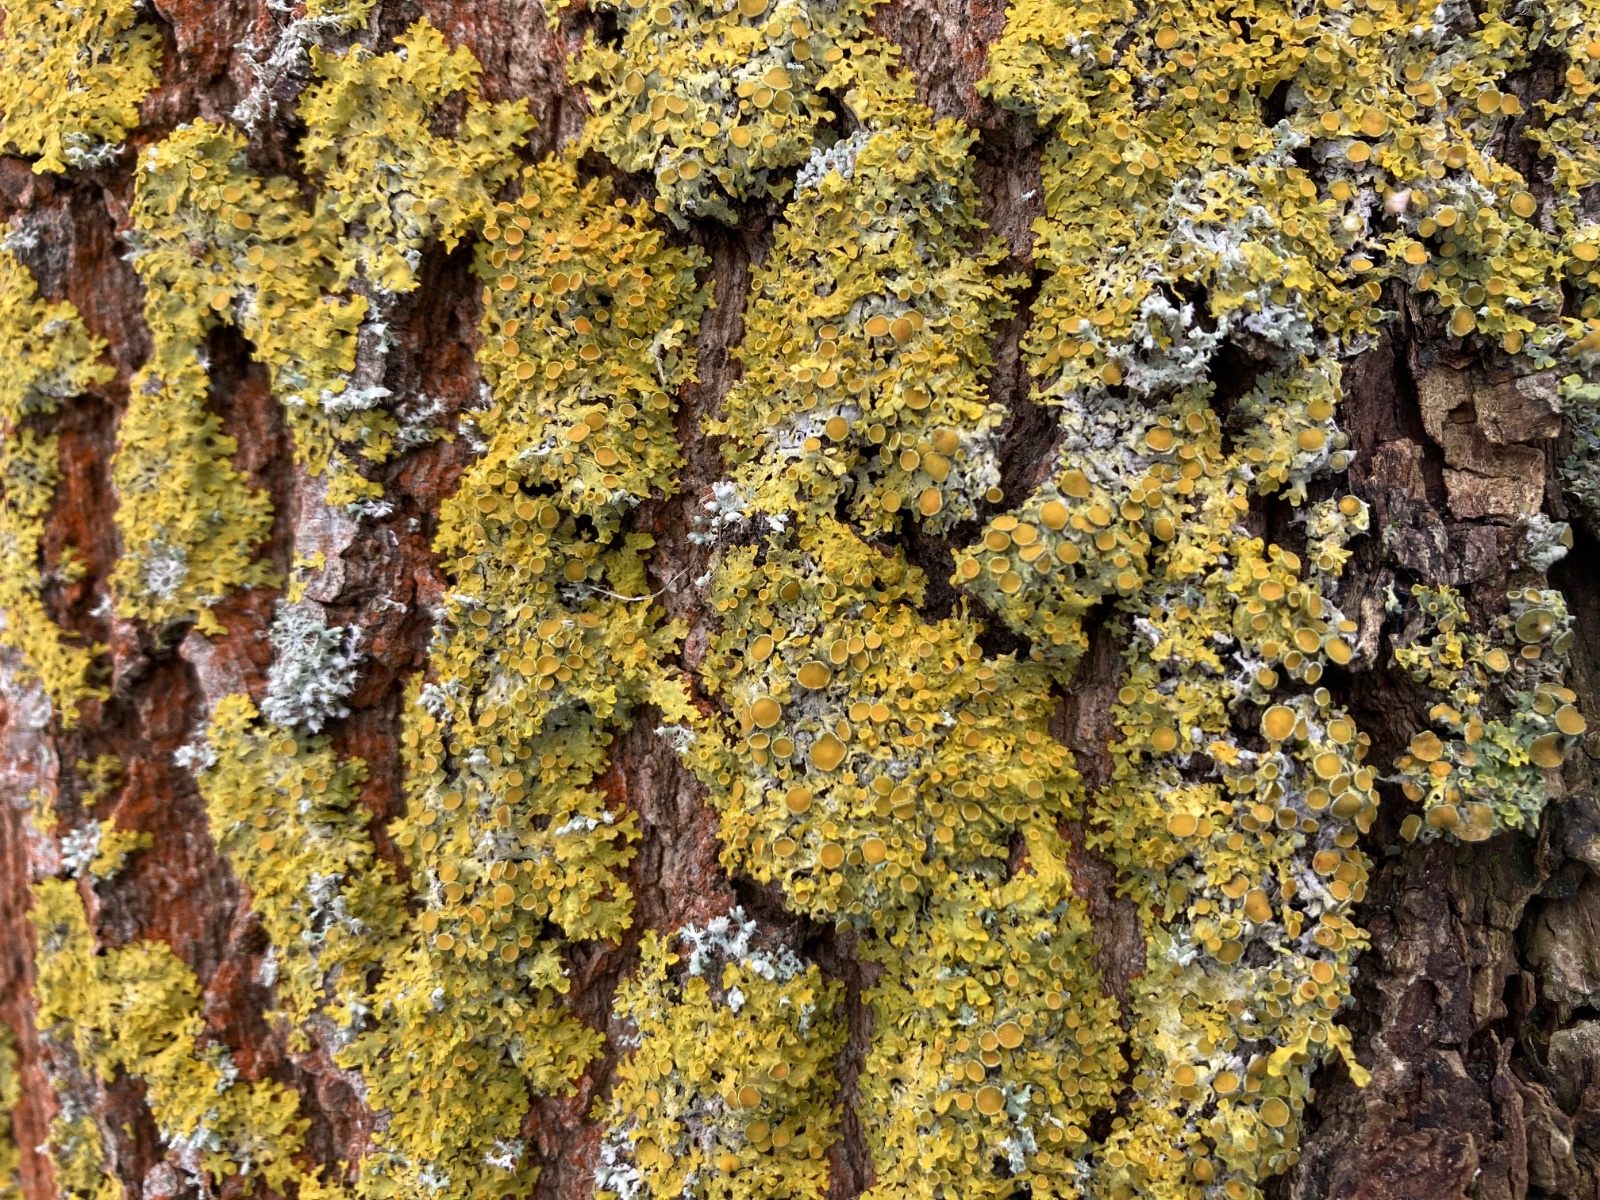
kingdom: Fungi
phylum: Ascomycota
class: Lecanoromycetes
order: Teloschistales
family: Teloschistaceae
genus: Xanthoria
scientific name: Xanthoria parietina
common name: almindelig væggelav
